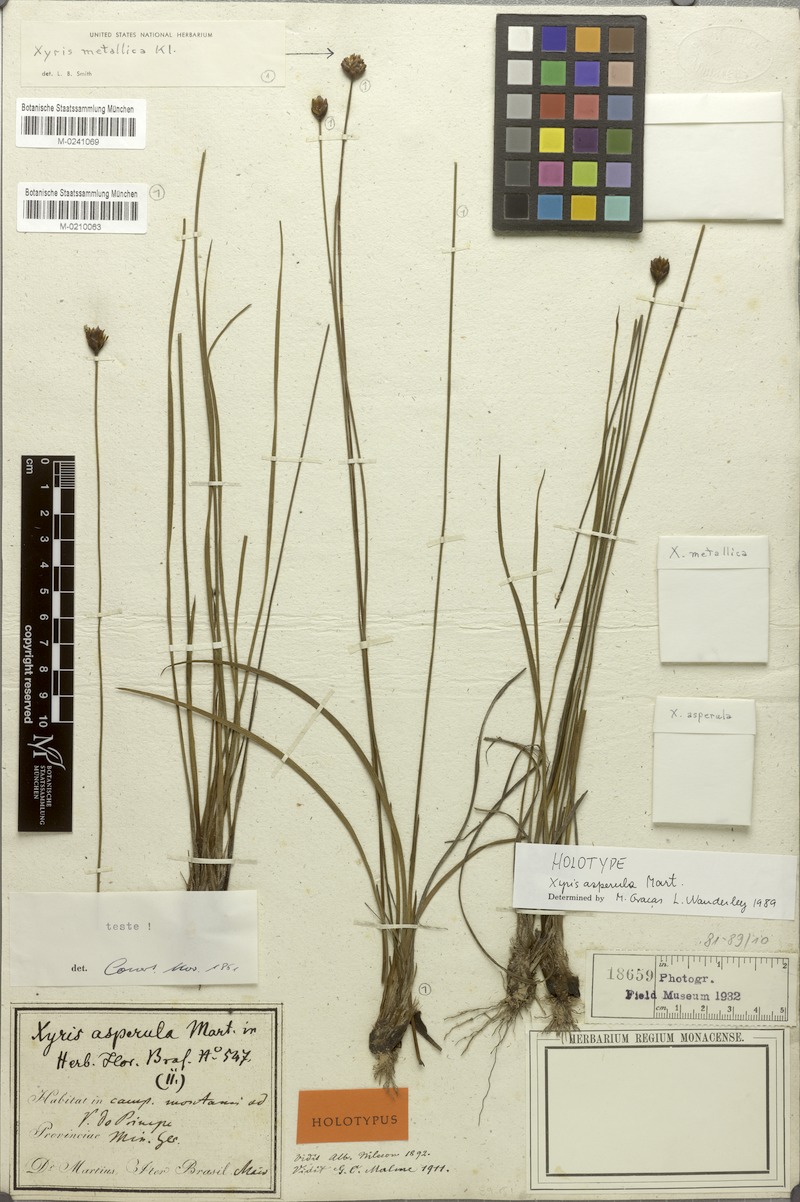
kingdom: Plantae
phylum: Tracheophyta
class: Liliopsida
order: Poales
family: Xyridaceae
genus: Xyris
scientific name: Xyris asperula
